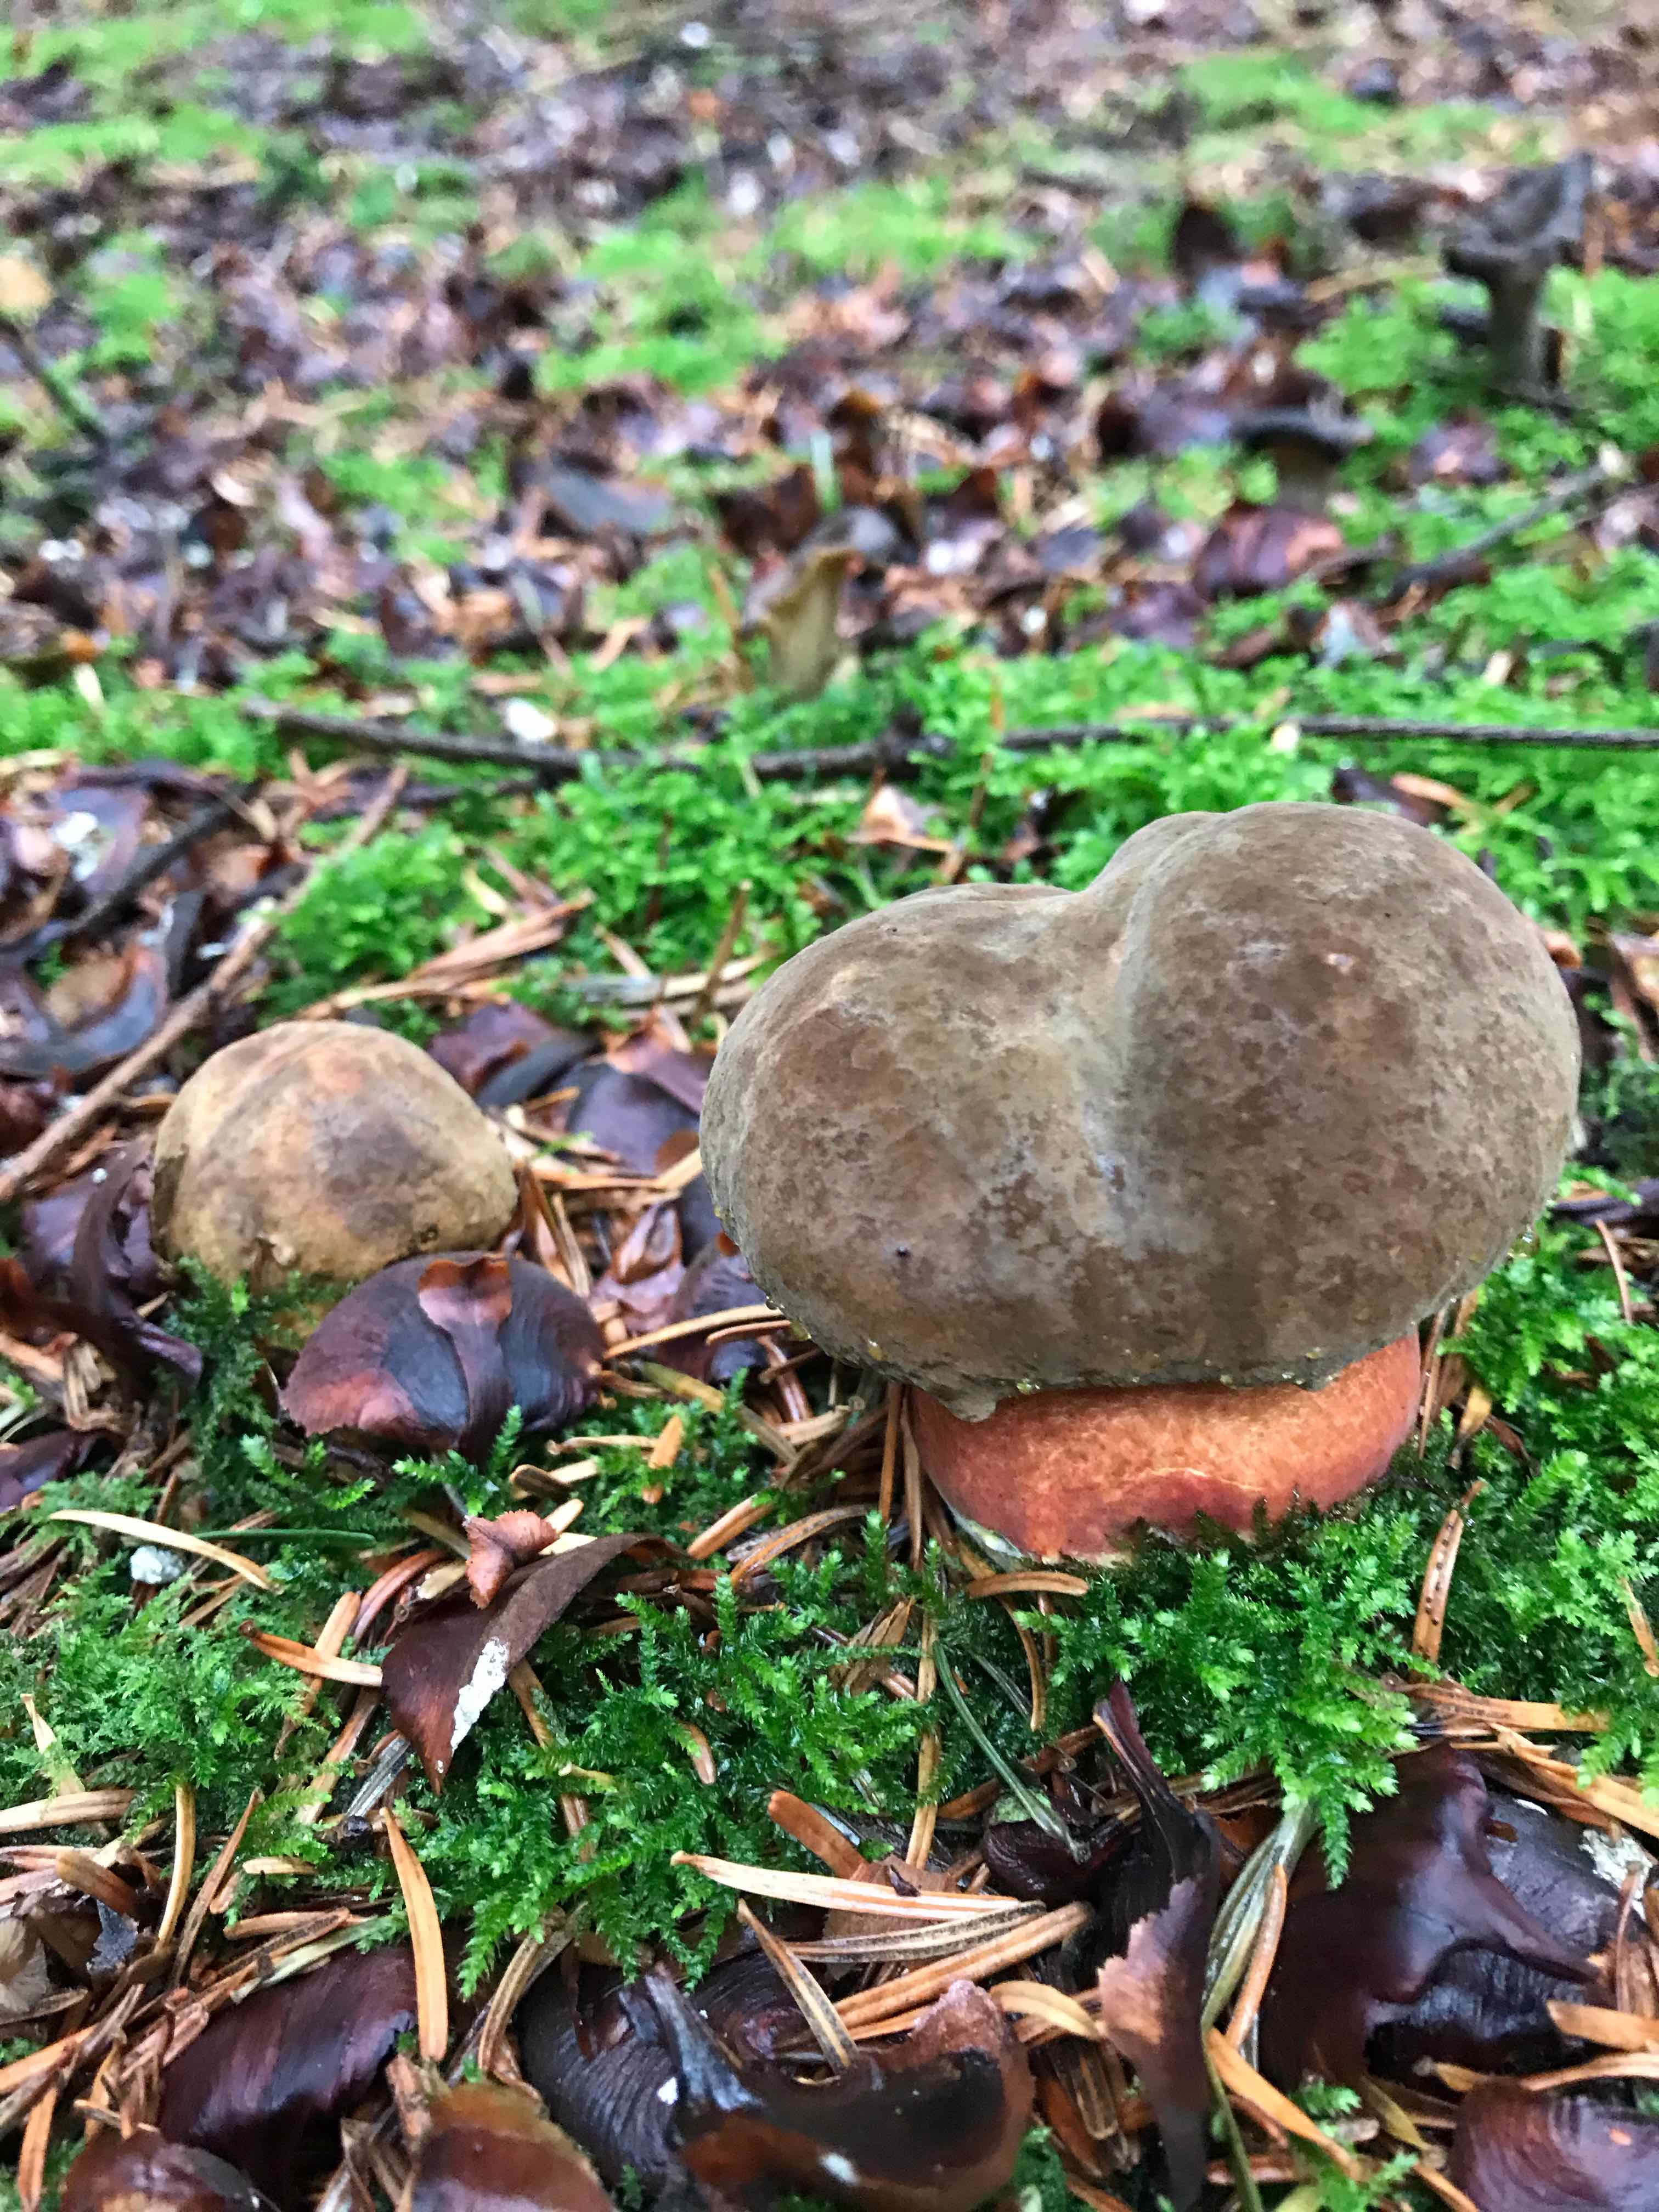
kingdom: Fungi
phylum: Basidiomycota
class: Agaricomycetes
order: Cantharellales
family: Hydnaceae
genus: Craterellus
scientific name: Craterellus cornucopioides
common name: trompetsvamp
